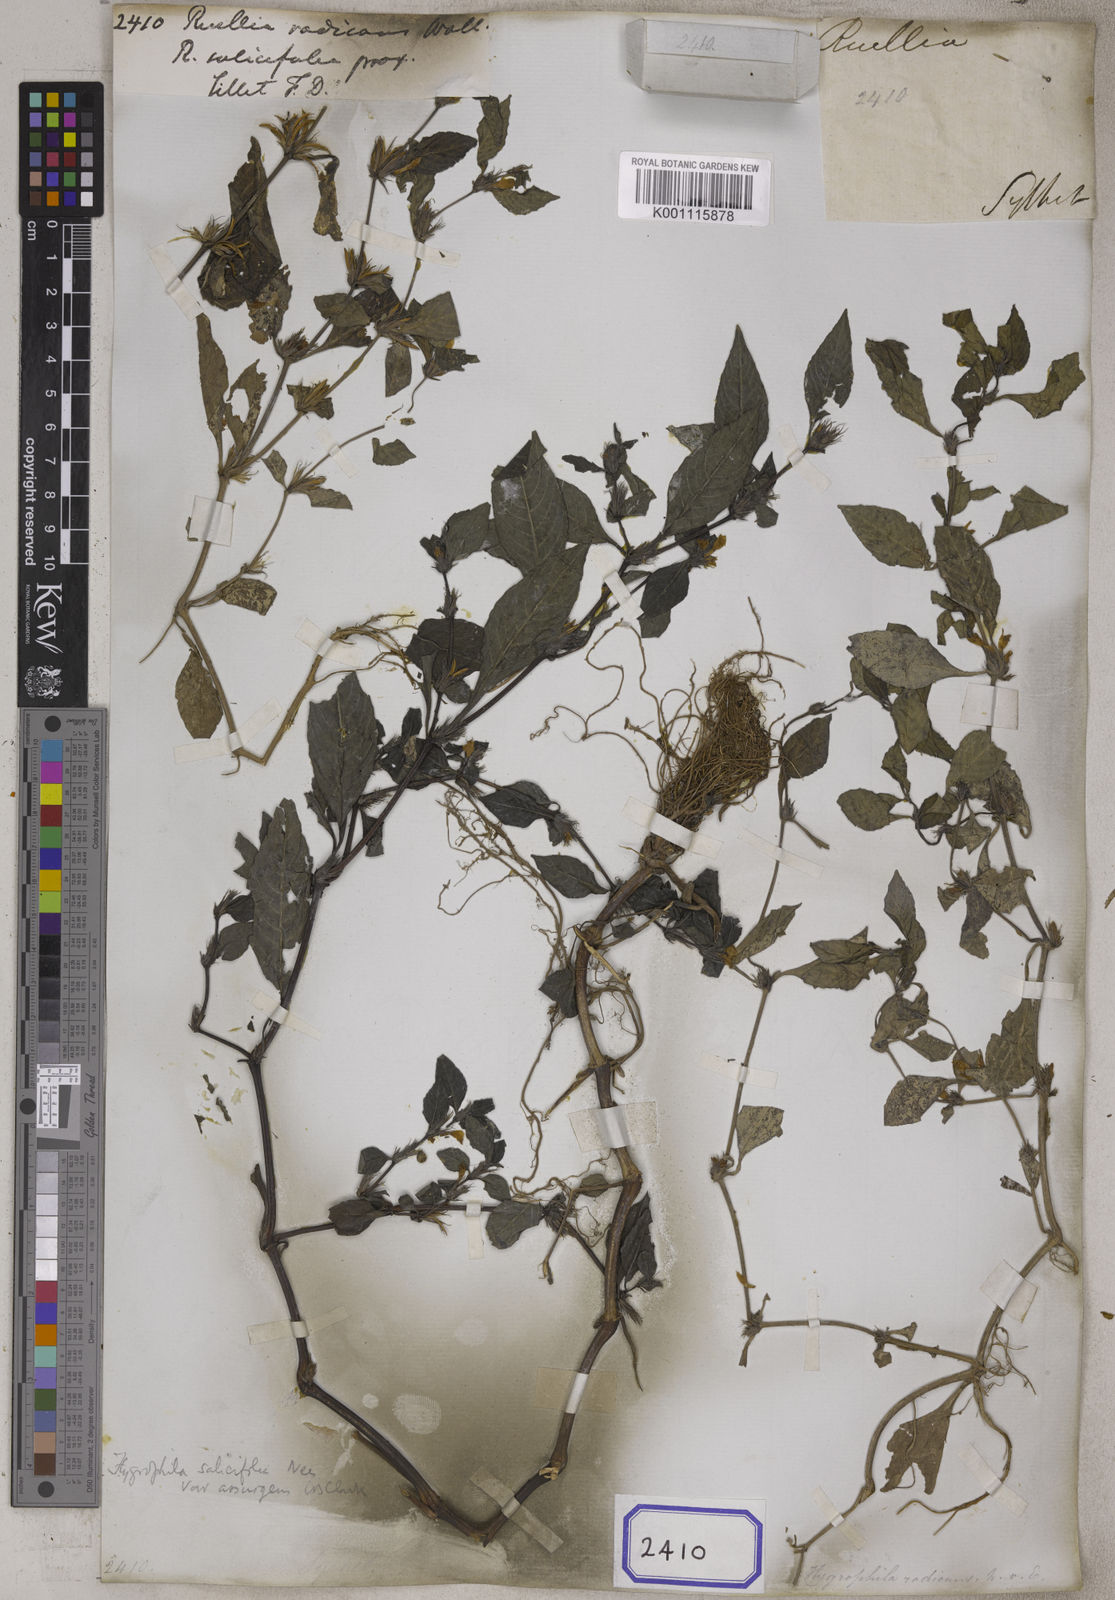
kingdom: Plantae
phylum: Tracheophyta
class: Magnoliopsida
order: Lamiales
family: Acanthaceae
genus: Hygrophila
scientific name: Hygrophila ringens
